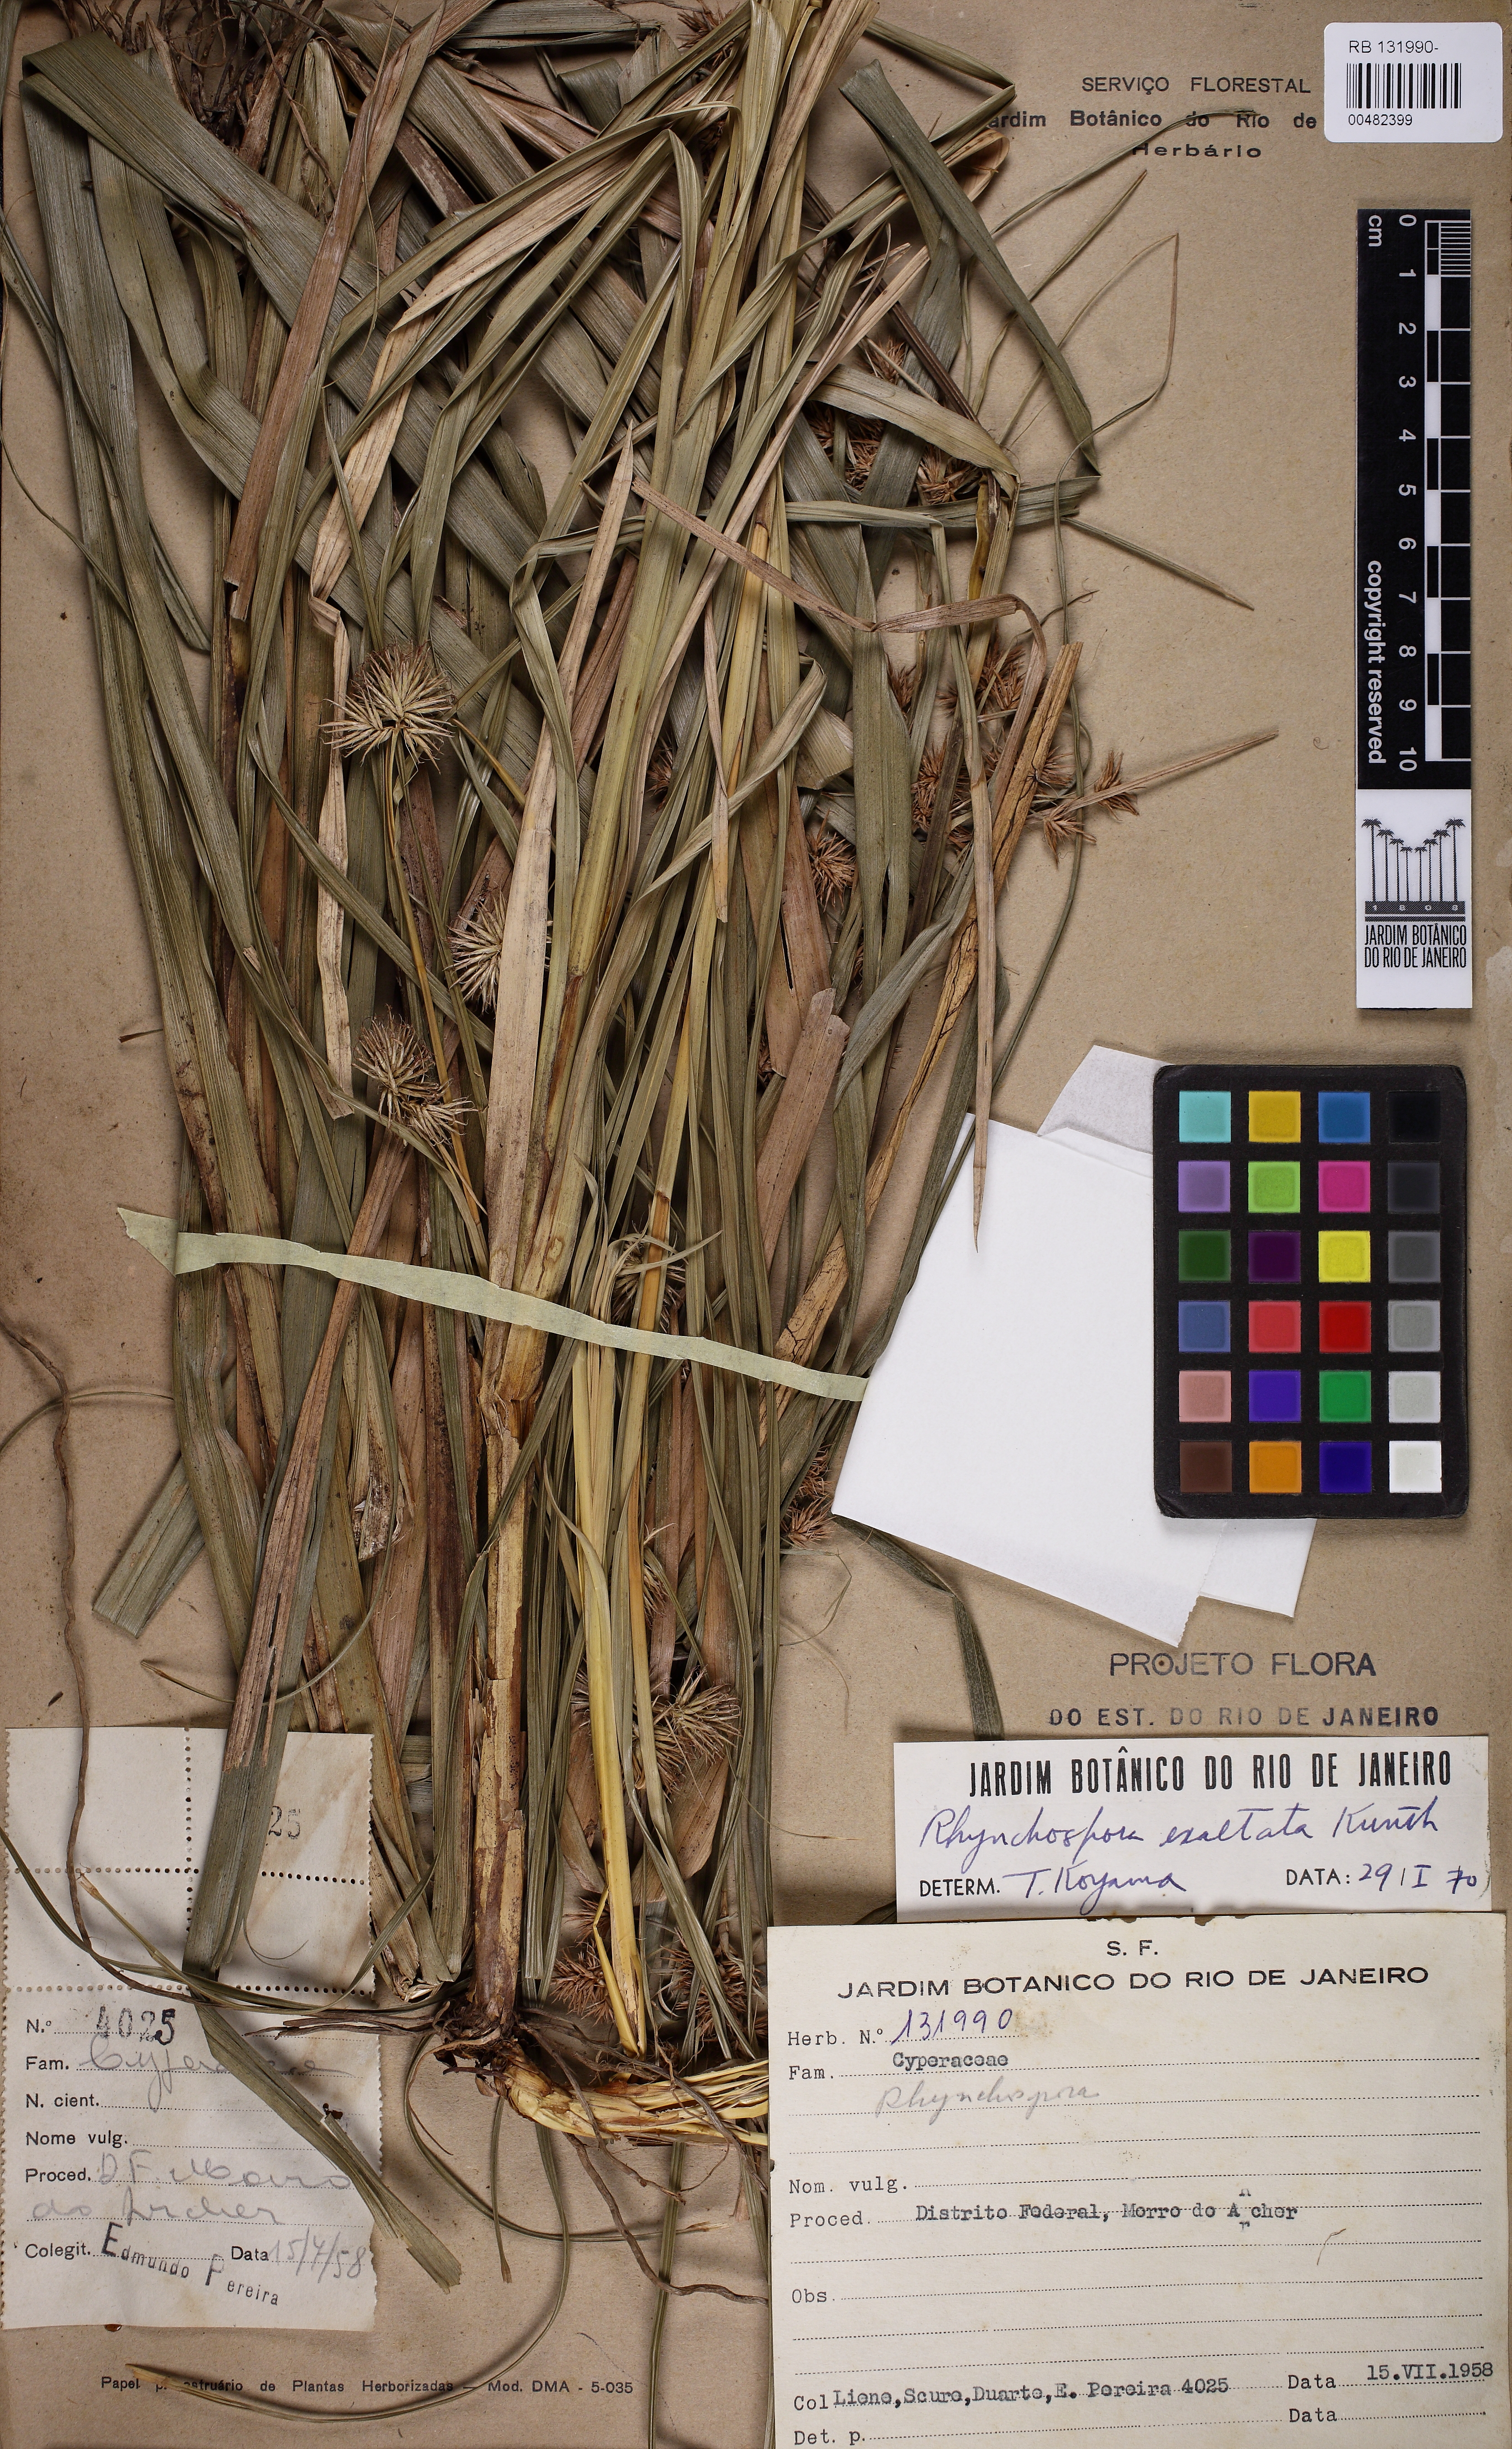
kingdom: Plantae
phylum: Tracheophyta
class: Liliopsida
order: Poales
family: Cyperaceae
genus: Rhynchospora
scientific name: Rhynchospora exaltata
